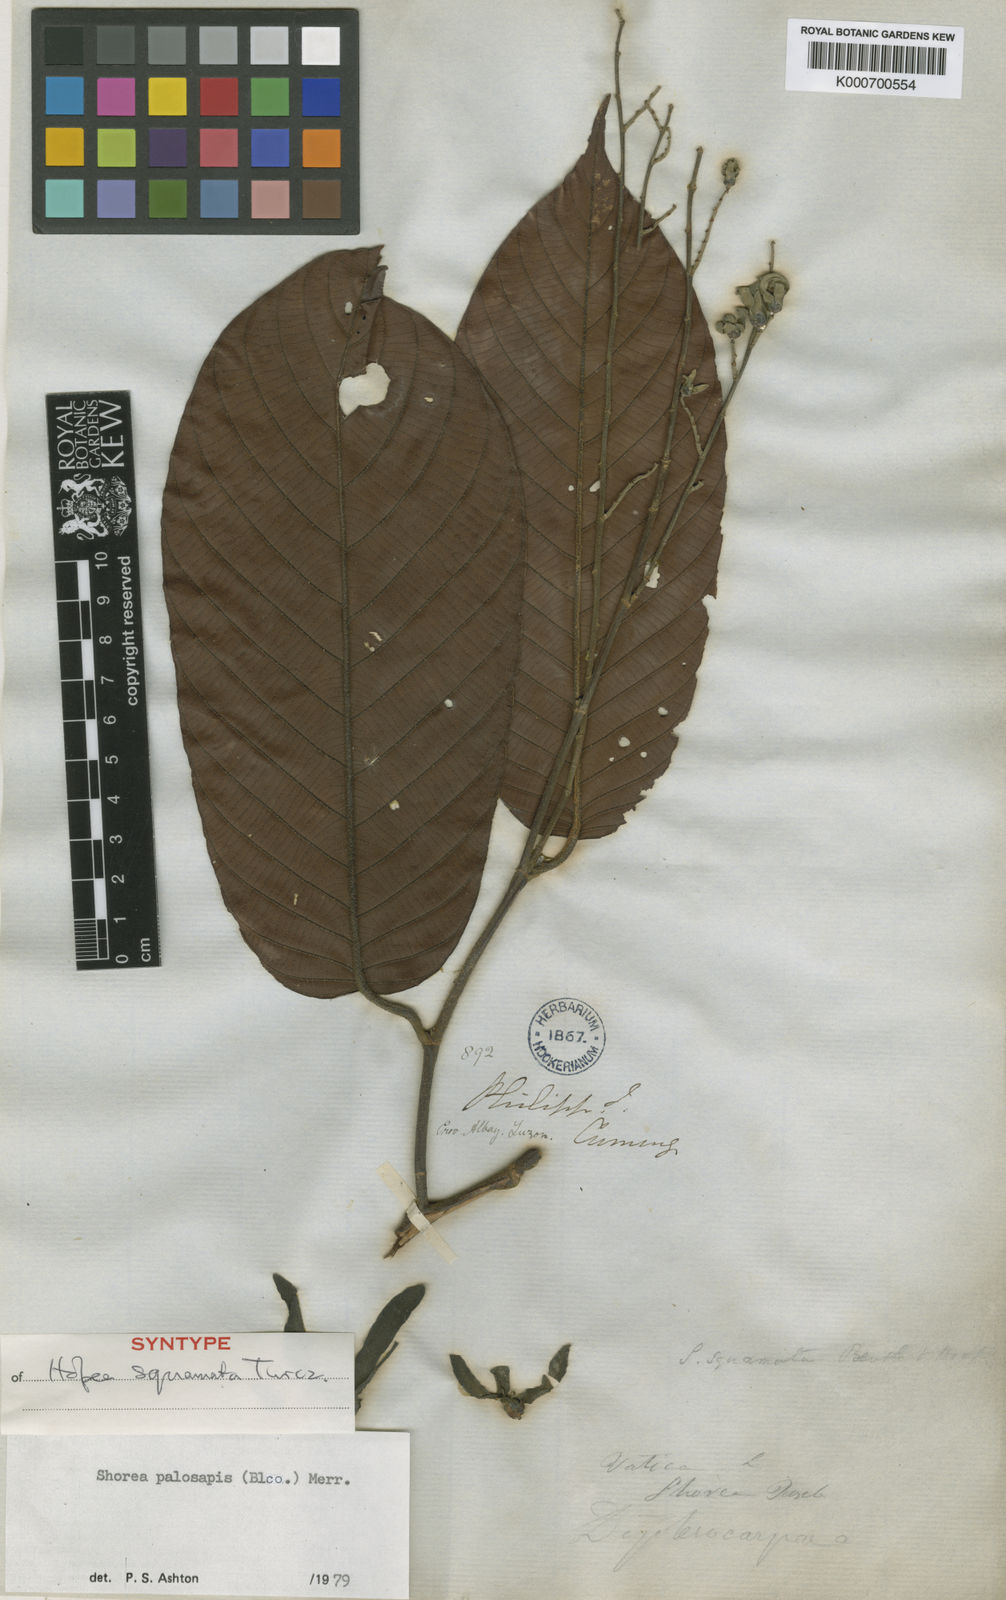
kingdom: Plantae
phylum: Tracheophyta
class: Magnoliopsida
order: Malvales
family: Dipterocarpaceae
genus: Shorea
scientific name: Shorea palosapis
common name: Philippine mahogany
